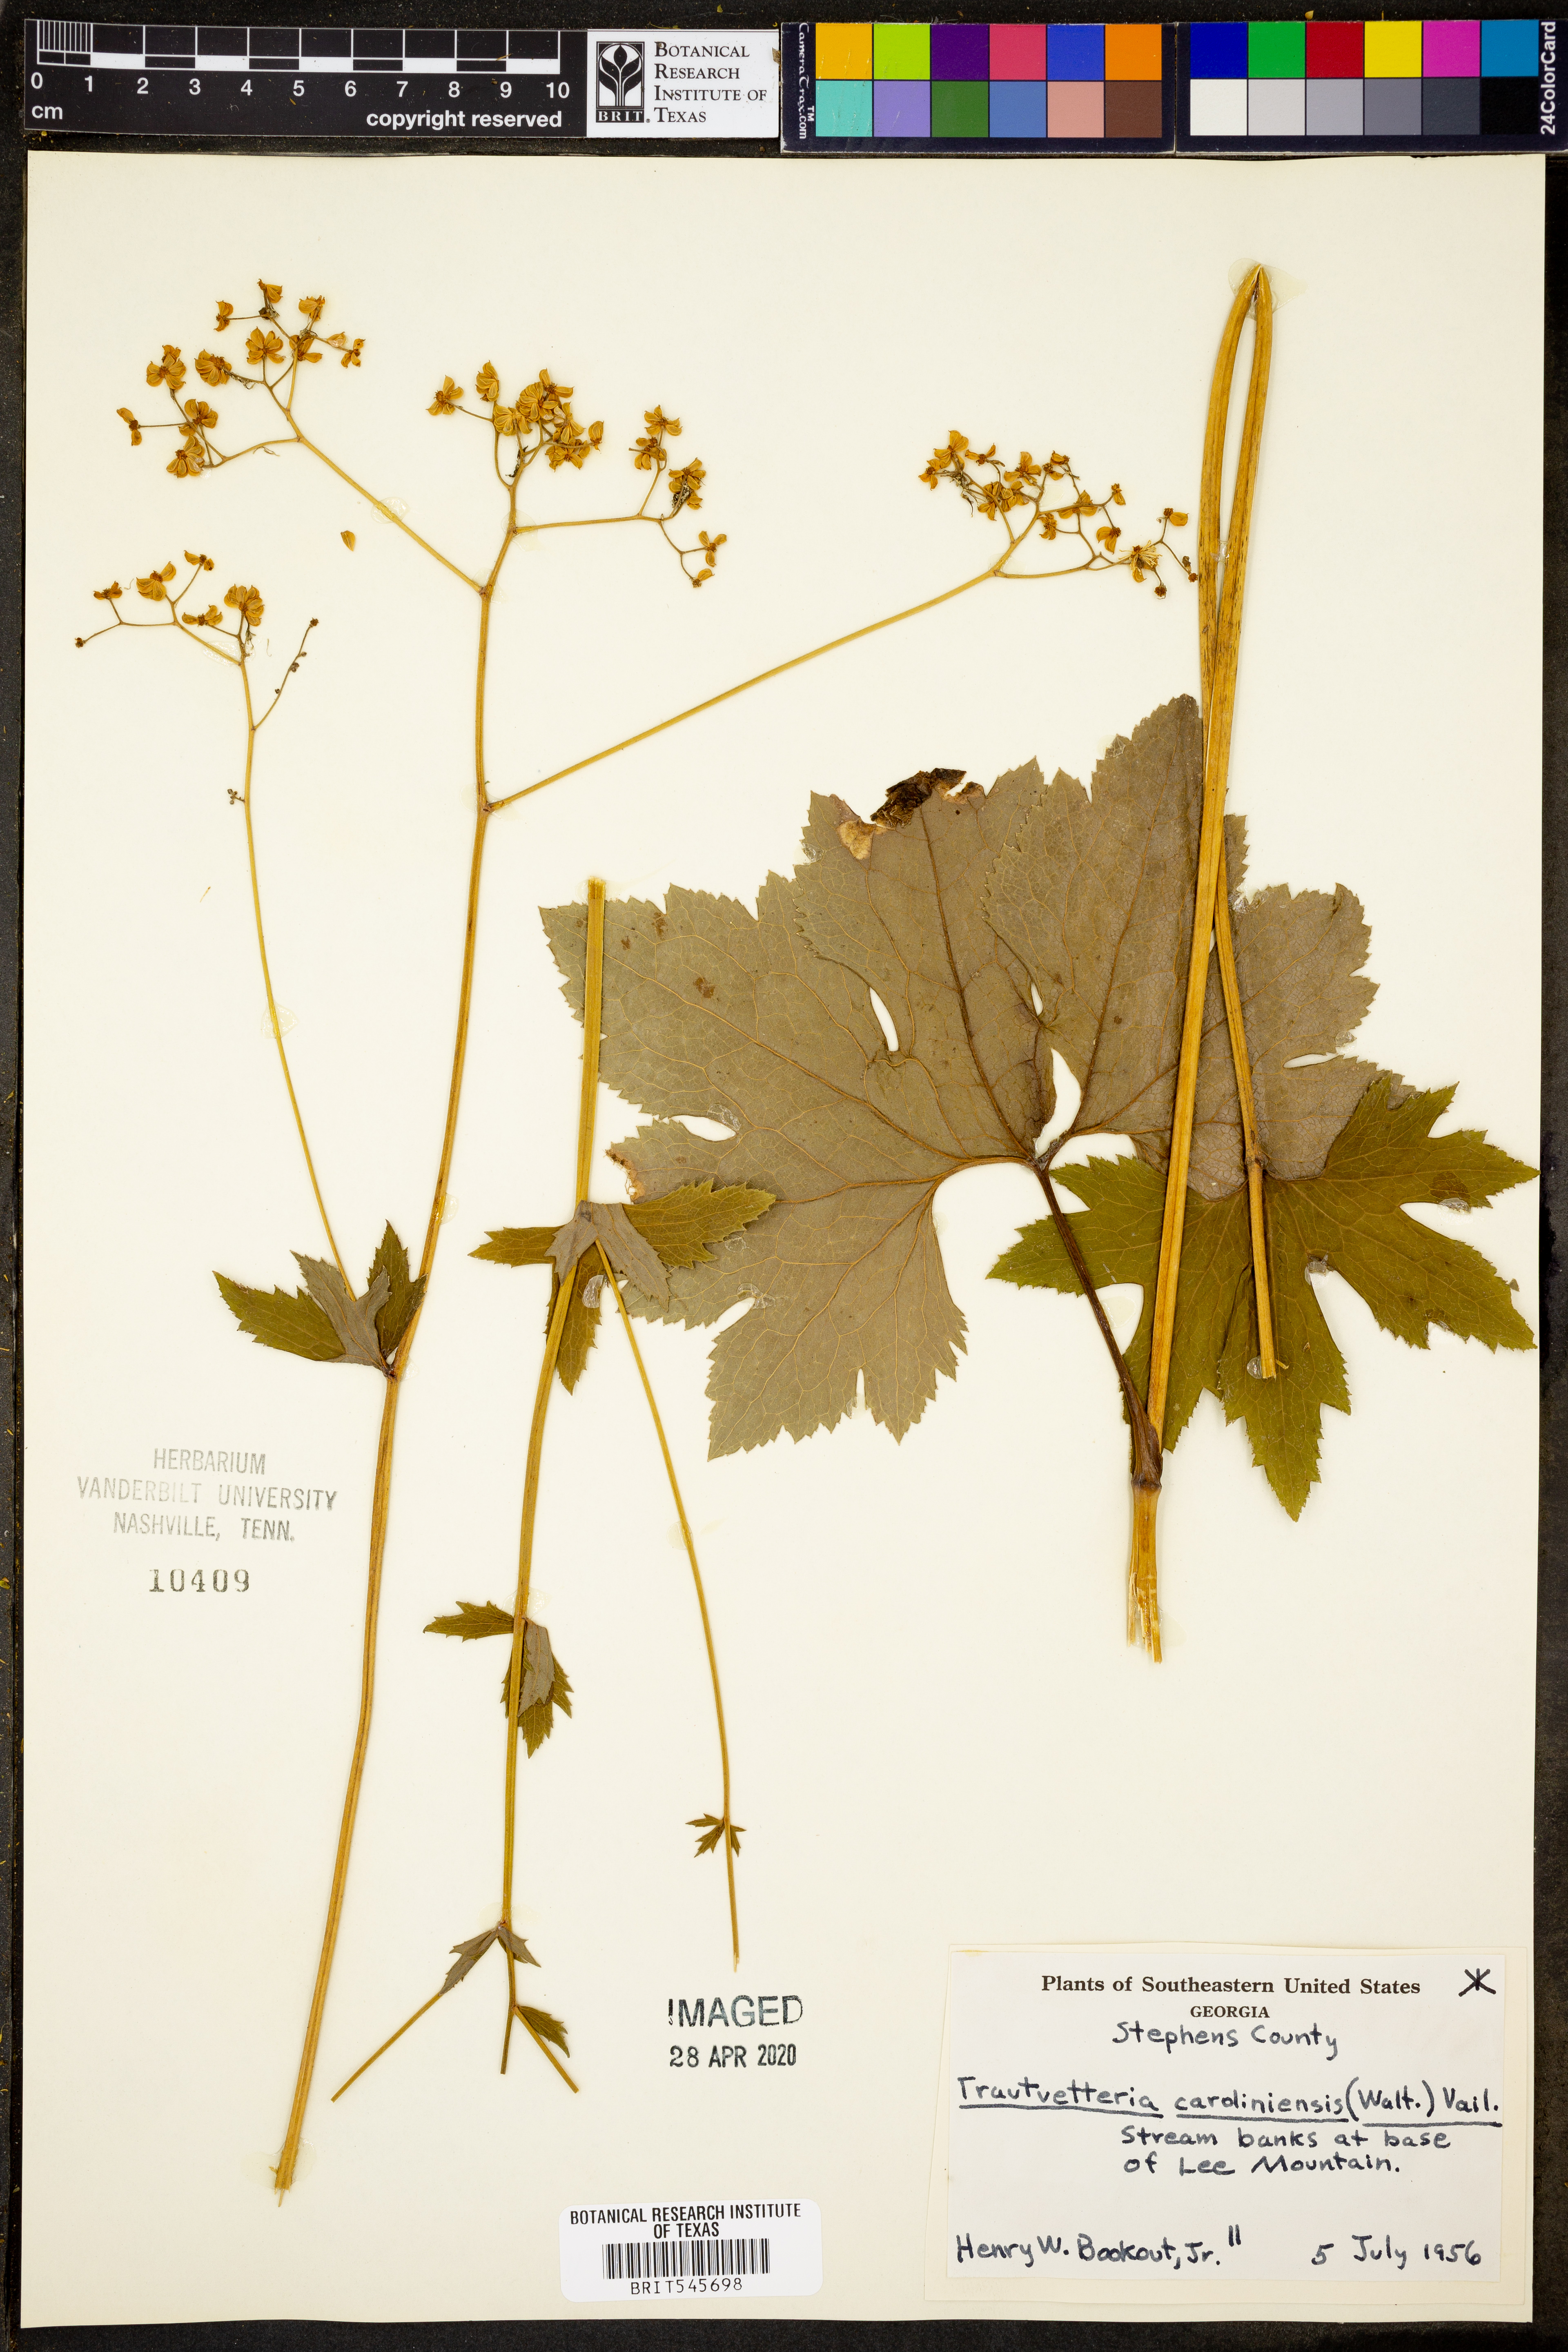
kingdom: Plantae
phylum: Tracheophyta
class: Magnoliopsida
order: Ranunculales
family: Ranunculaceae
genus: Trautvetteria
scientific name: Trautvetteria carolinensis
